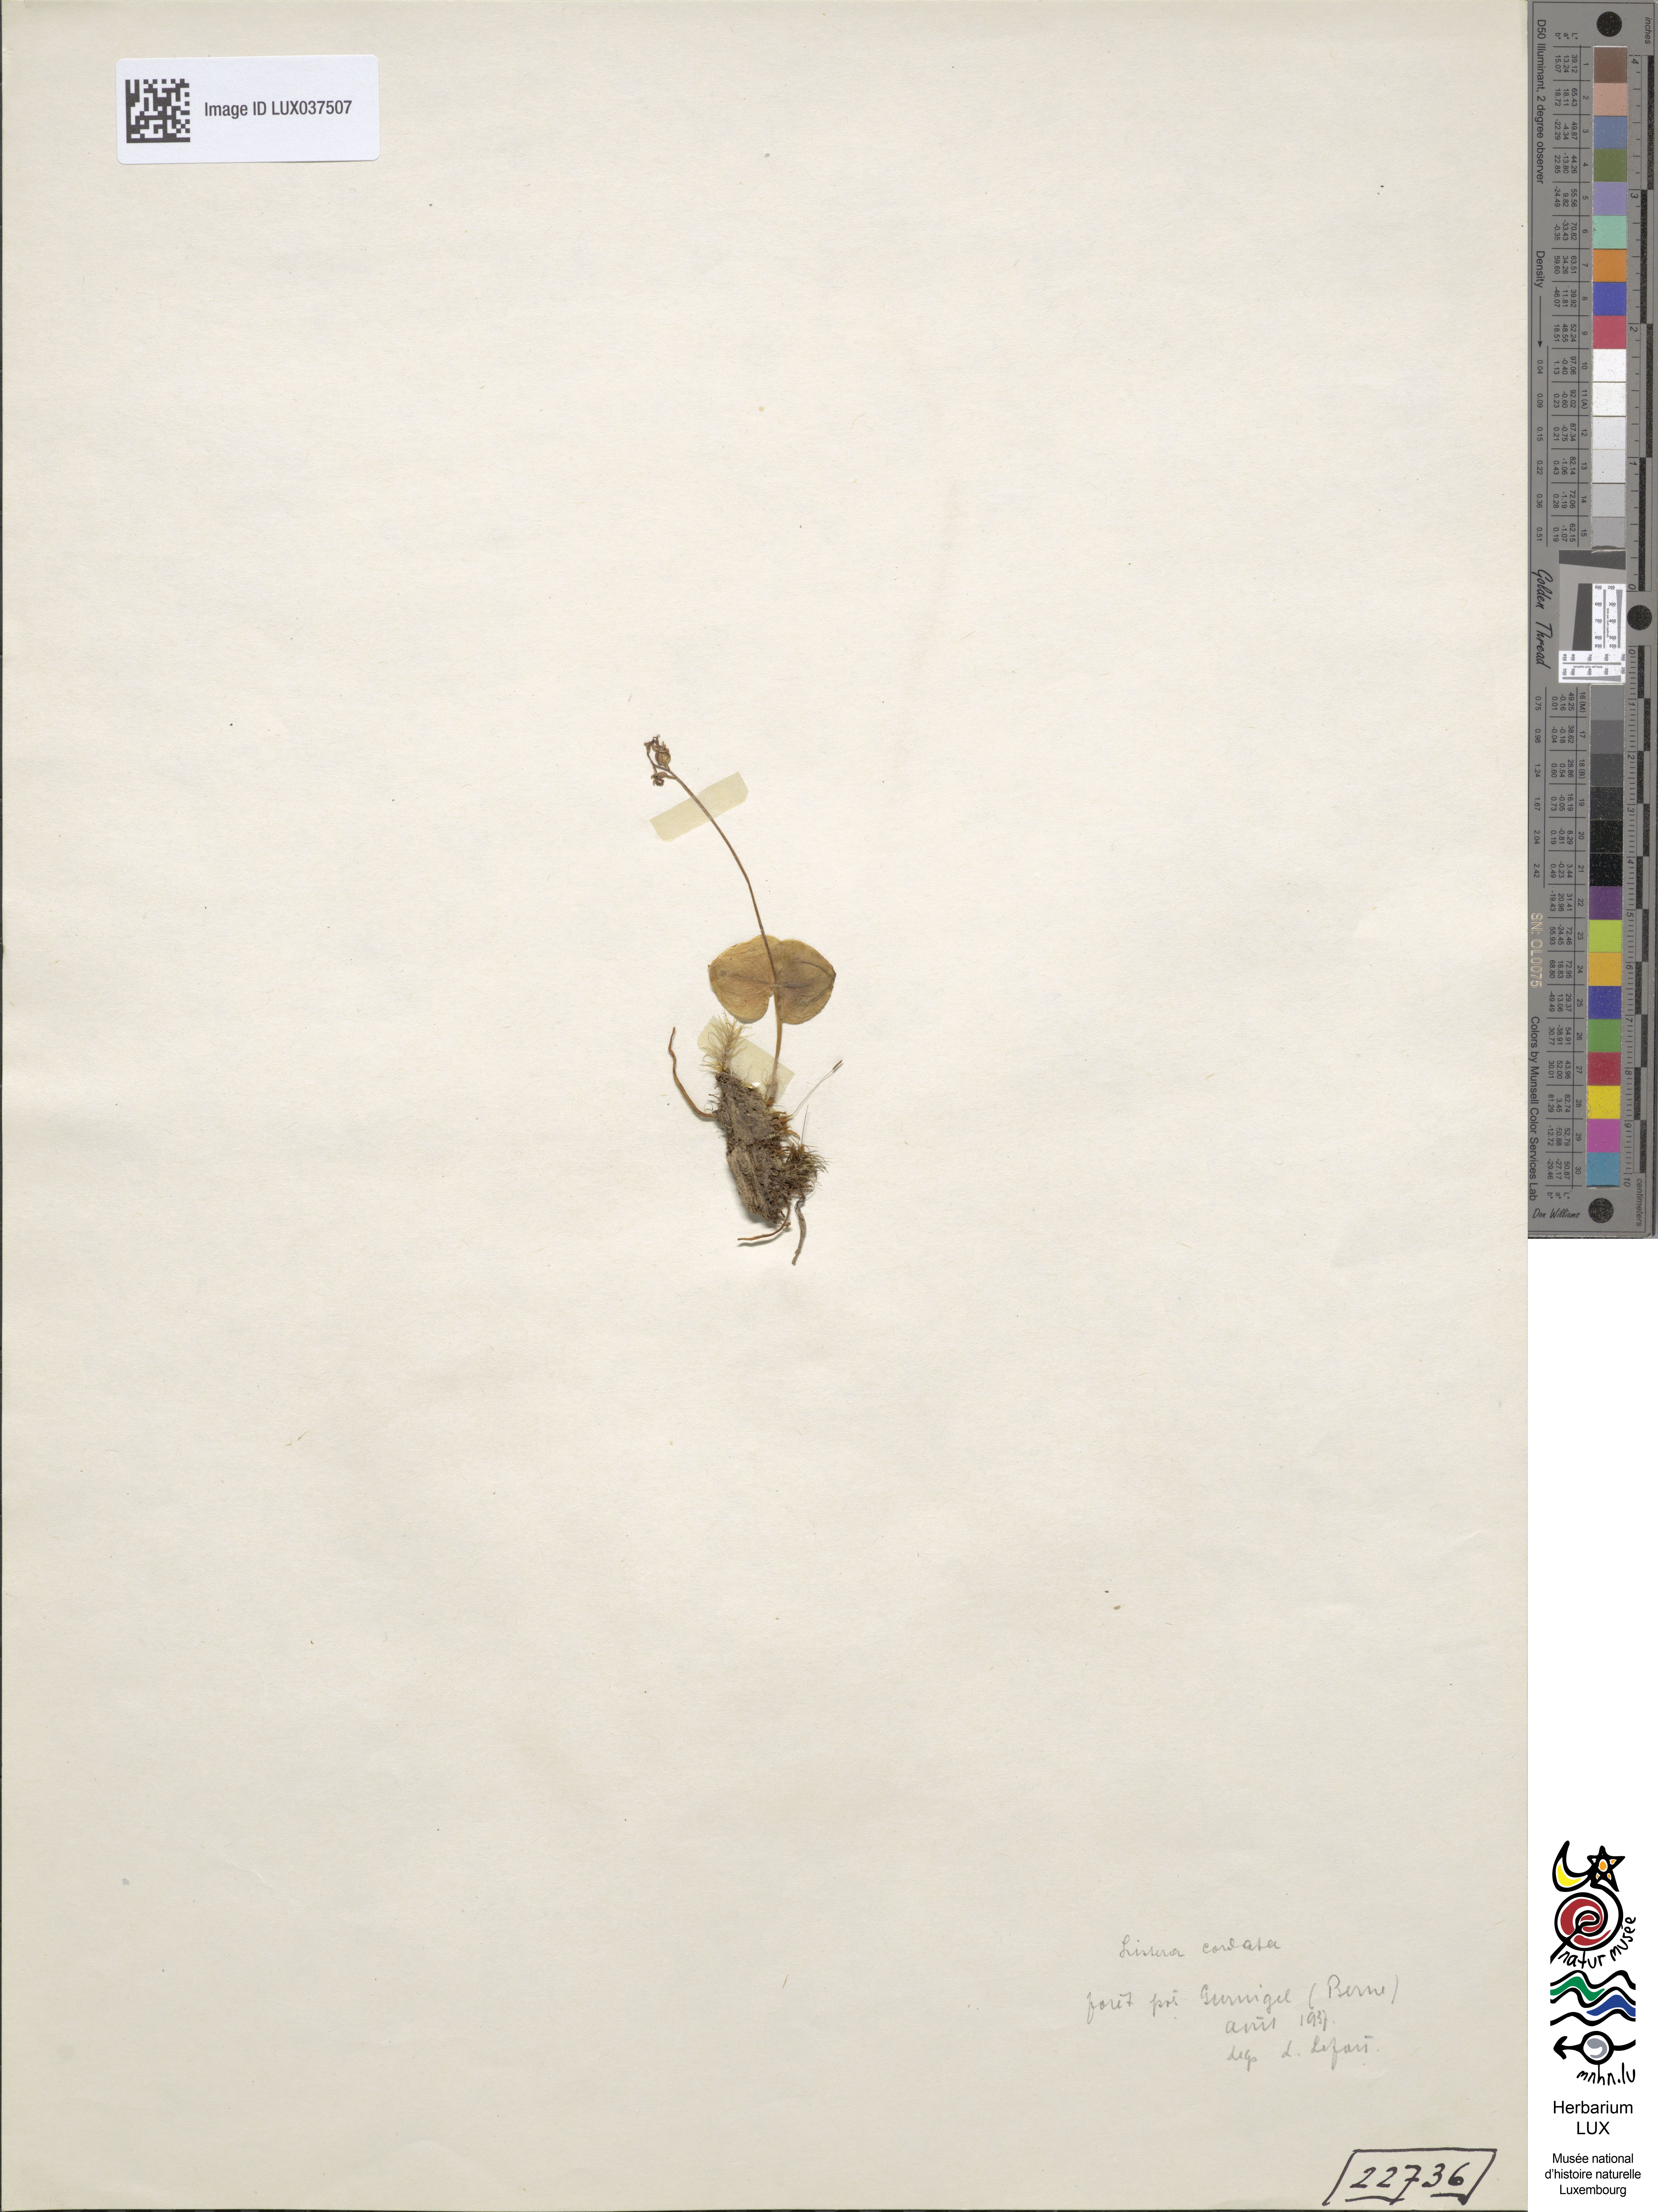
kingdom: Plantae
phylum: Tracheophyta
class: Liliopsida
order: Asparagales
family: Orchidaceae
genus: Neottia
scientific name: Neottia cordata
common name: Lesser twayblade
